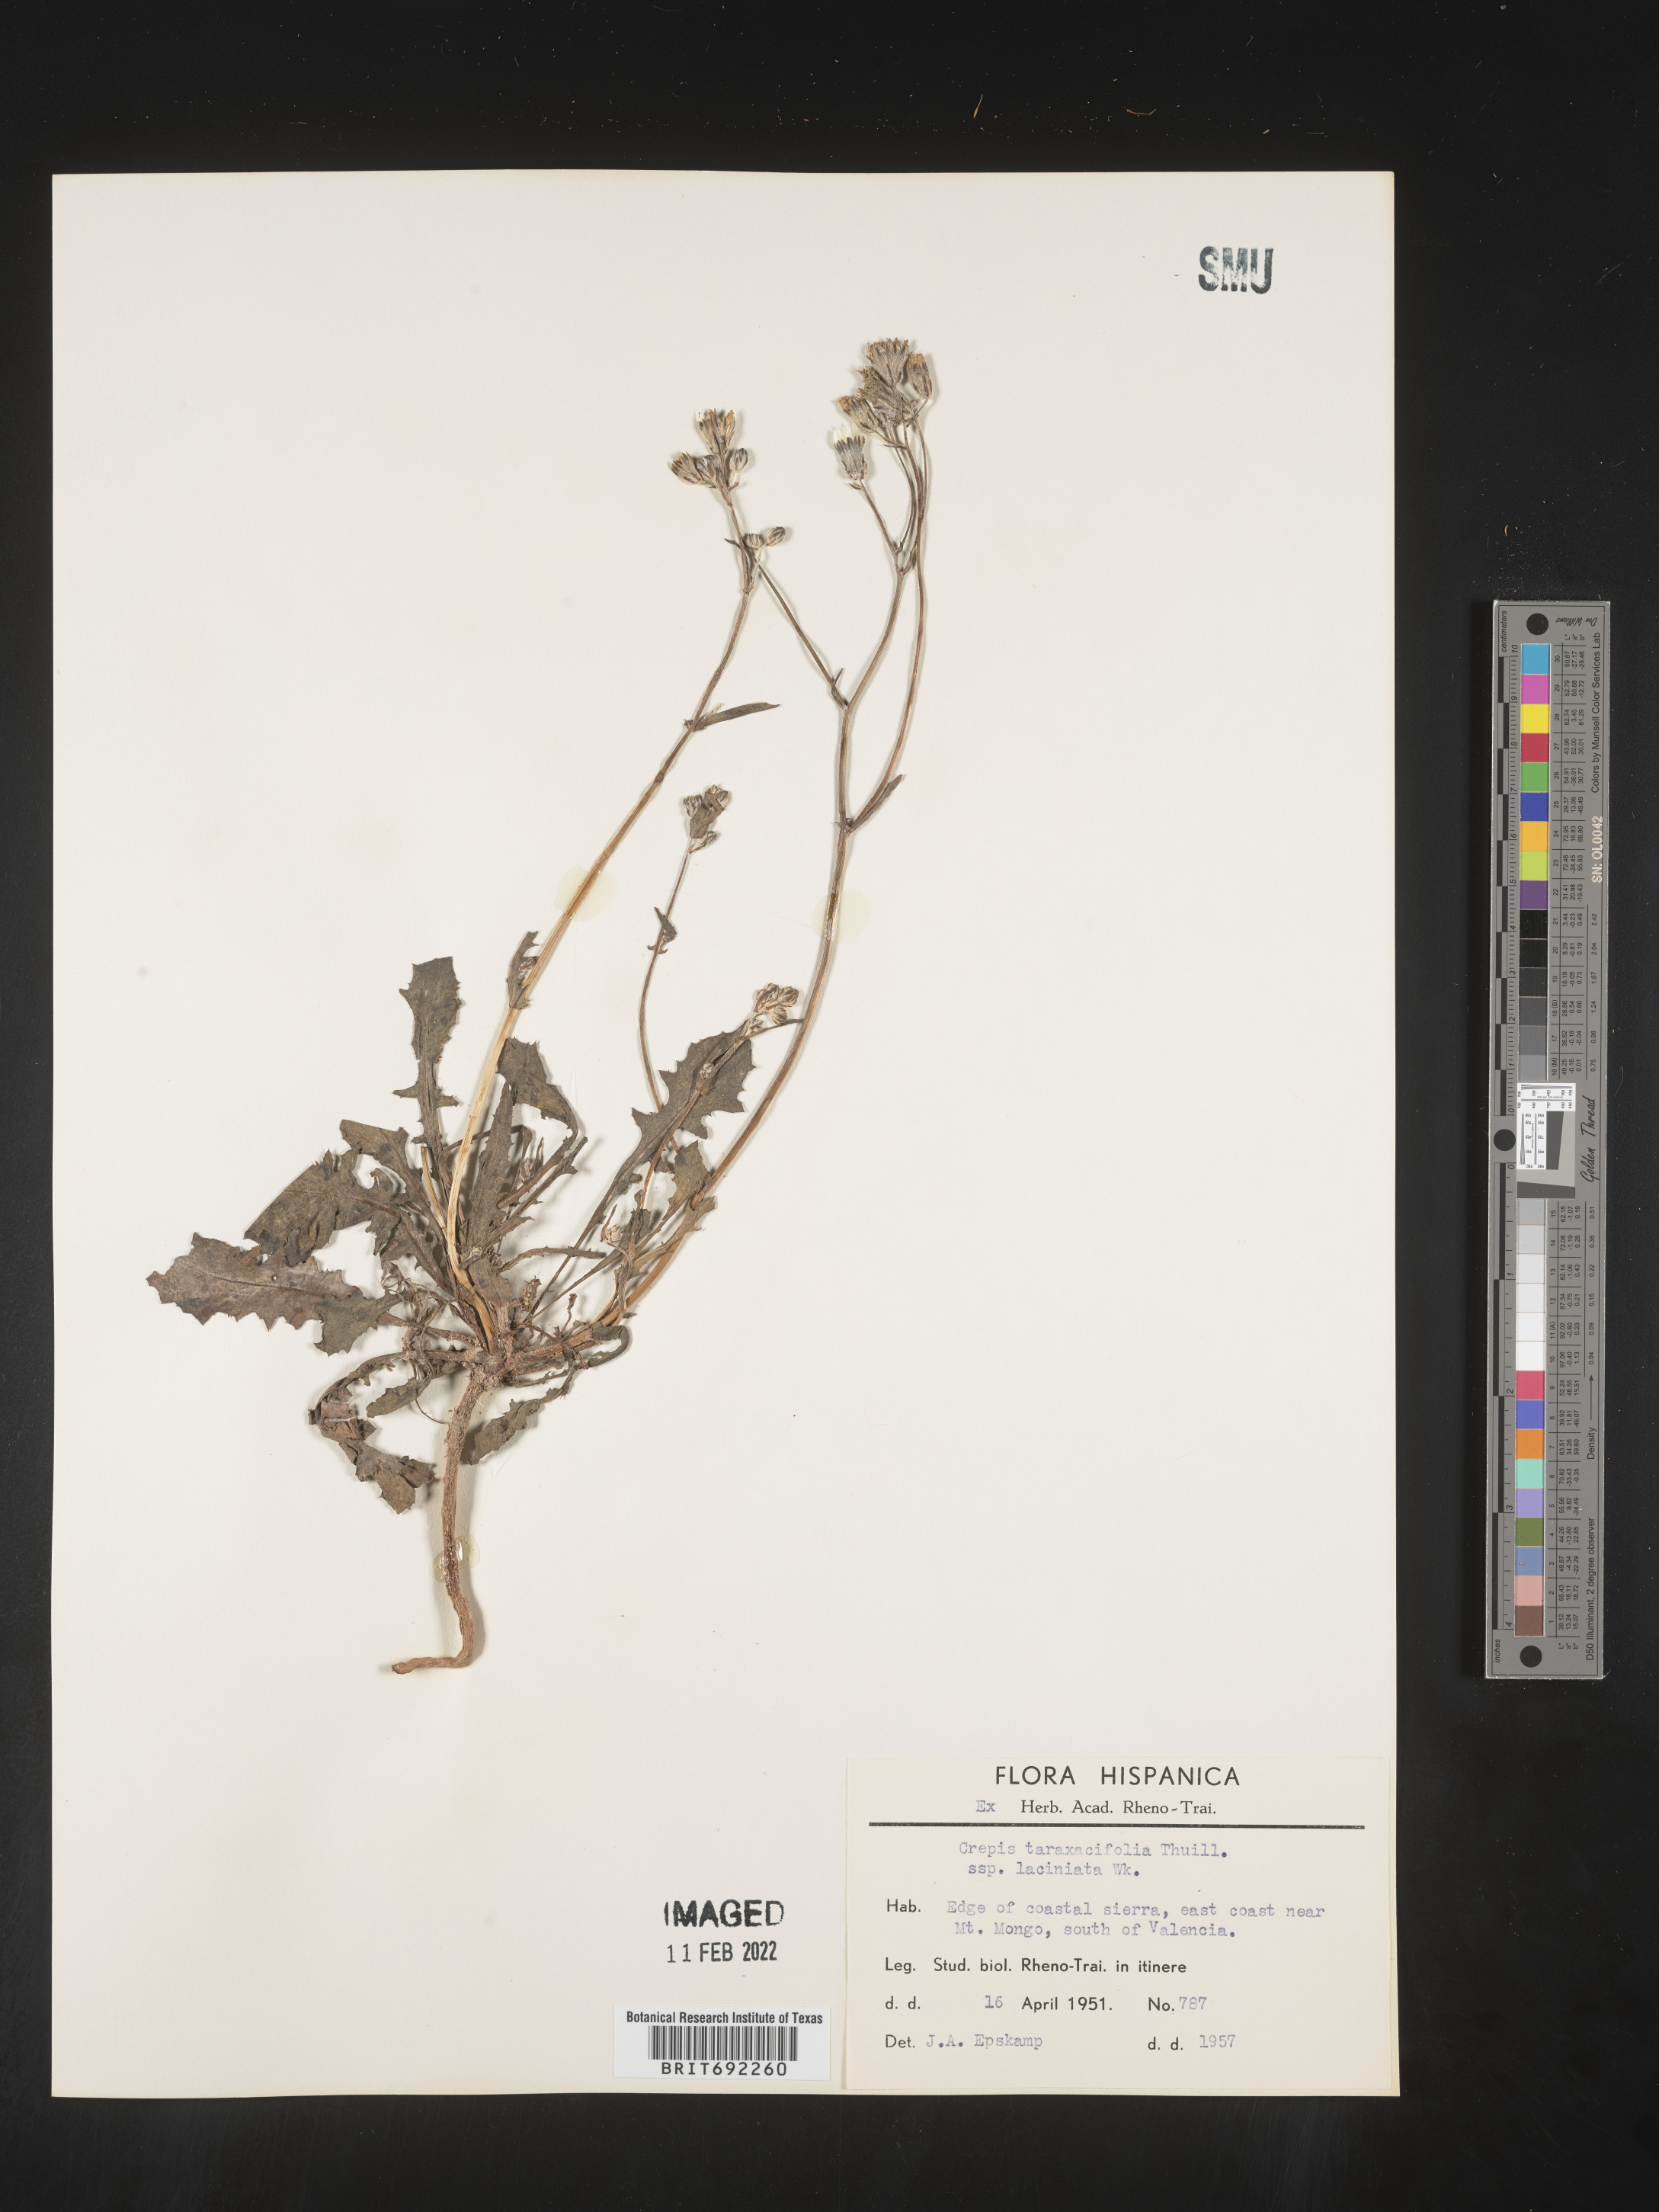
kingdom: Plantae
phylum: Tracheophyta
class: Magnoliopsida
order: Asterales
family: Asteraceae
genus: Crepis
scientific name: Crepis
